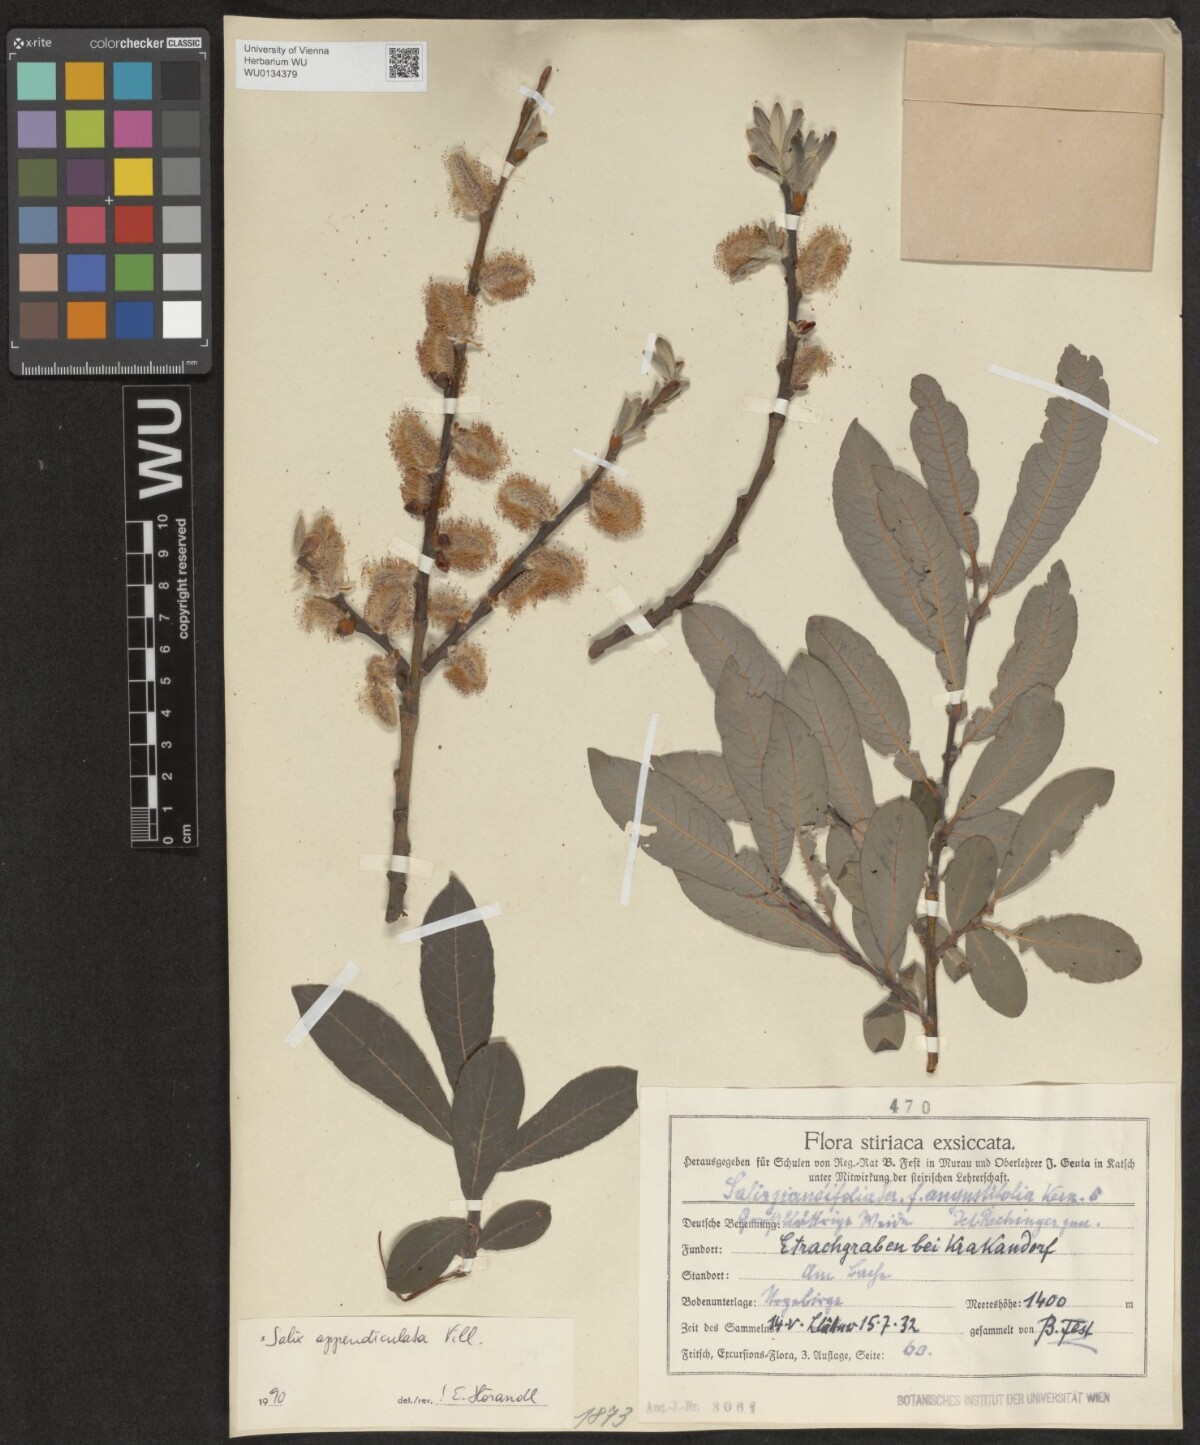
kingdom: Plantae
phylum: Tracheophyta
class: Magnoliopsida
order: Malpighiales
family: Salicaceae
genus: Salix
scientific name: Salix appendiculata
